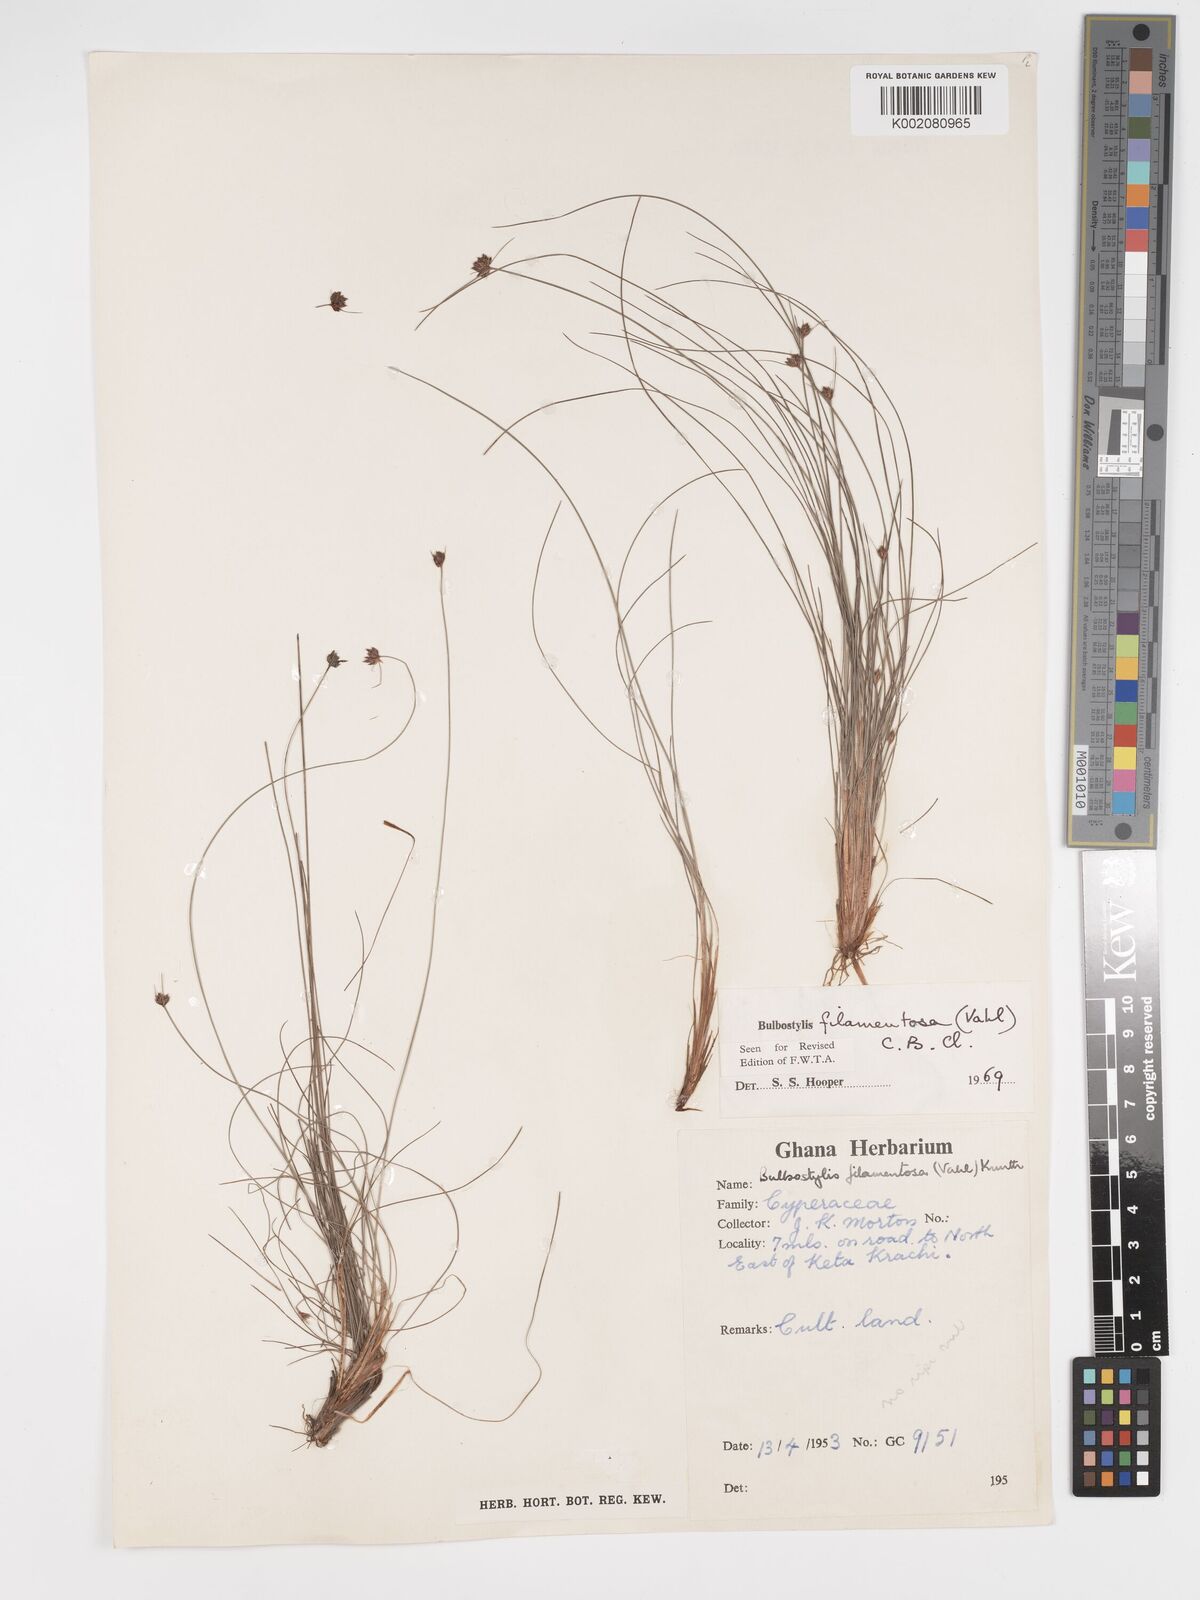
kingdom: Plantae
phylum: Tracheophyta
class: Liliopsida
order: Poales
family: Cyperaceae
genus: Bulbostylis
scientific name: Bulbostylis filamentosa
